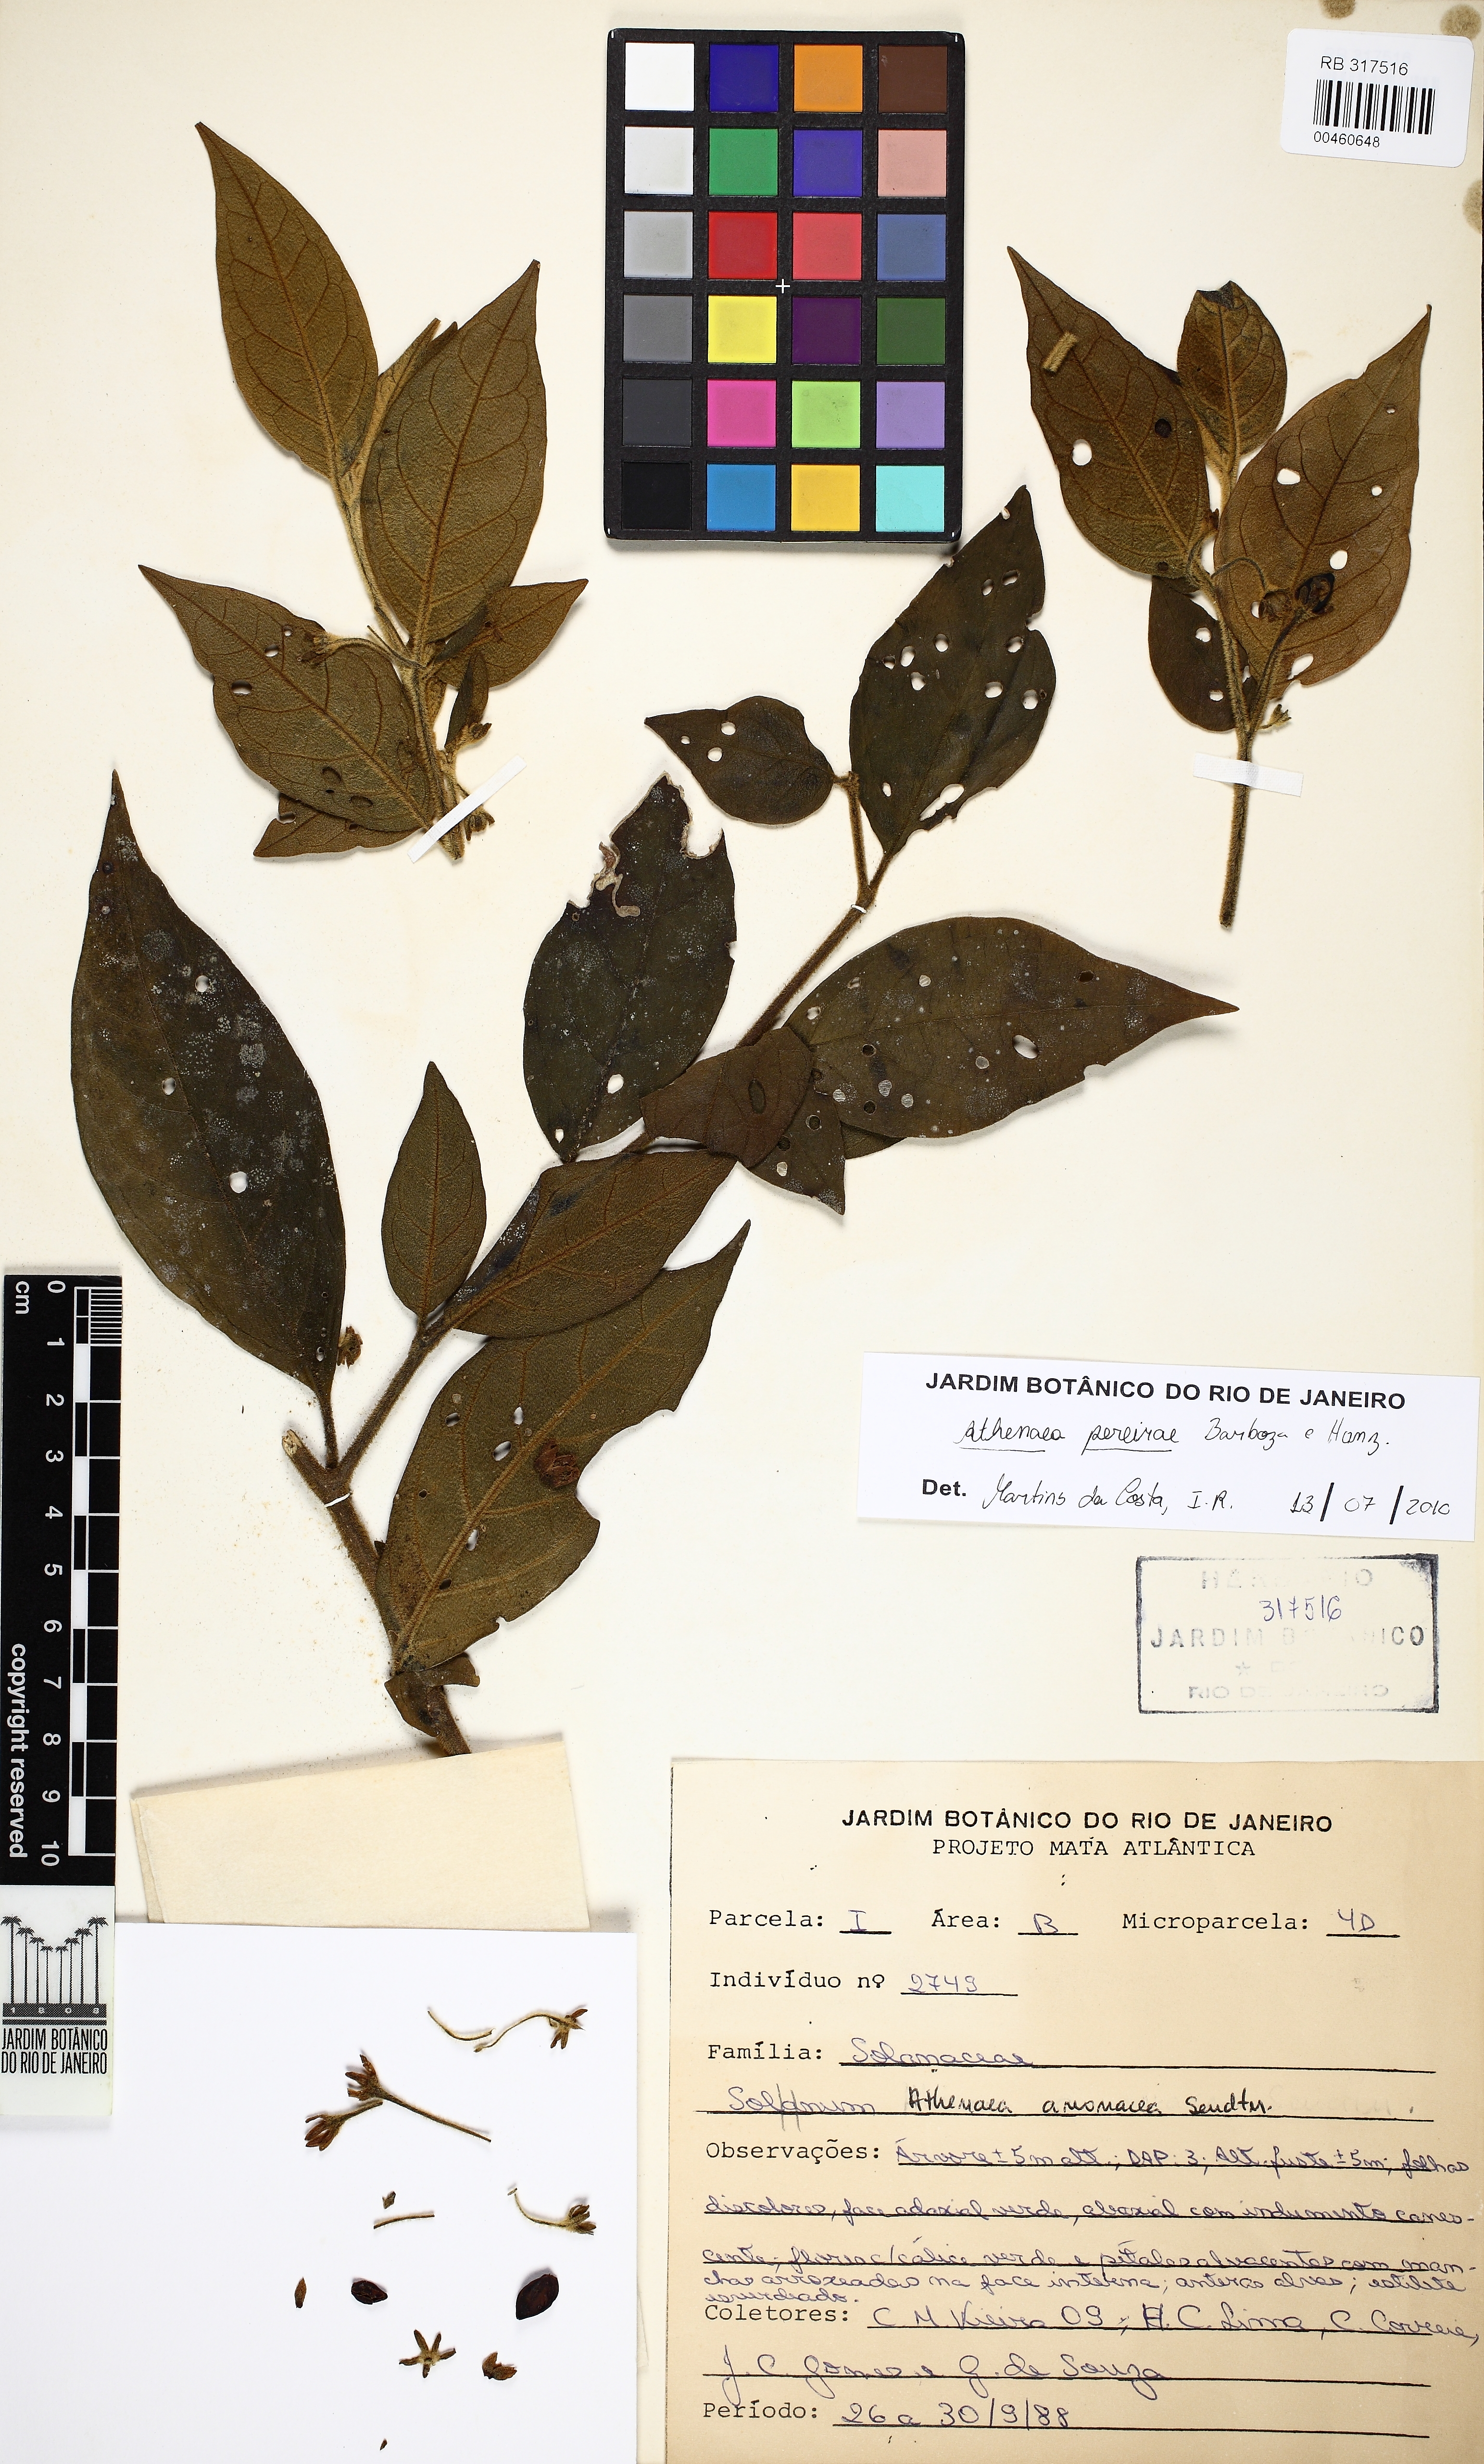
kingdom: Plantae
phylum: Tracheophyta
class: Magnoliopsida
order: Solanales
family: Solanaceae
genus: Athenaea
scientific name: Athenaea anonacea
